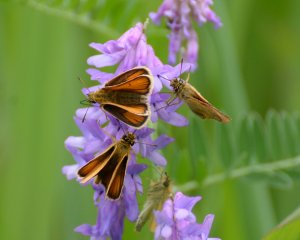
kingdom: Animalia
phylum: Arthropoda
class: Insecta
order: Lepidoptera
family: Hesperiidae
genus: Thymelicus
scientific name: Thymelicus lineola
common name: European Skipper
